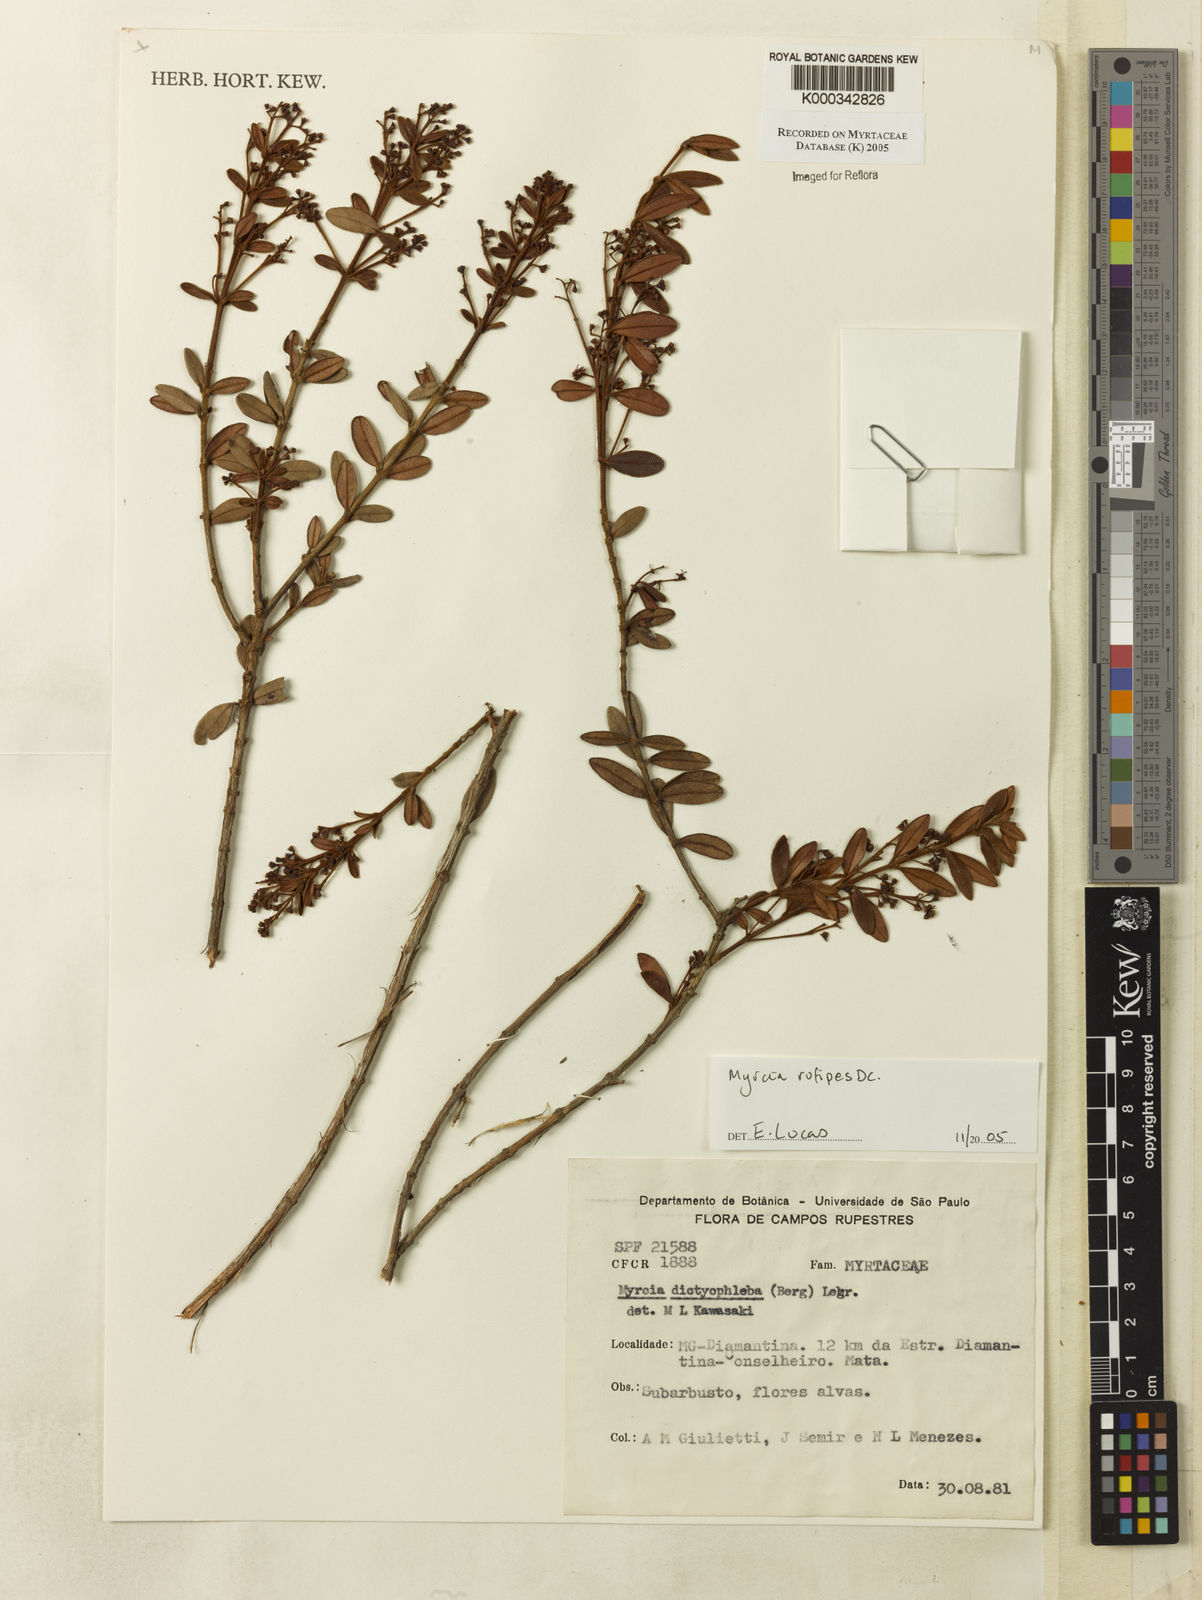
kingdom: Plantae
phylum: Tracheophyta
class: Magnoliopsida
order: Myrtales
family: Myrtaceae
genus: Myrcia
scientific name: Myrcia rufipes
